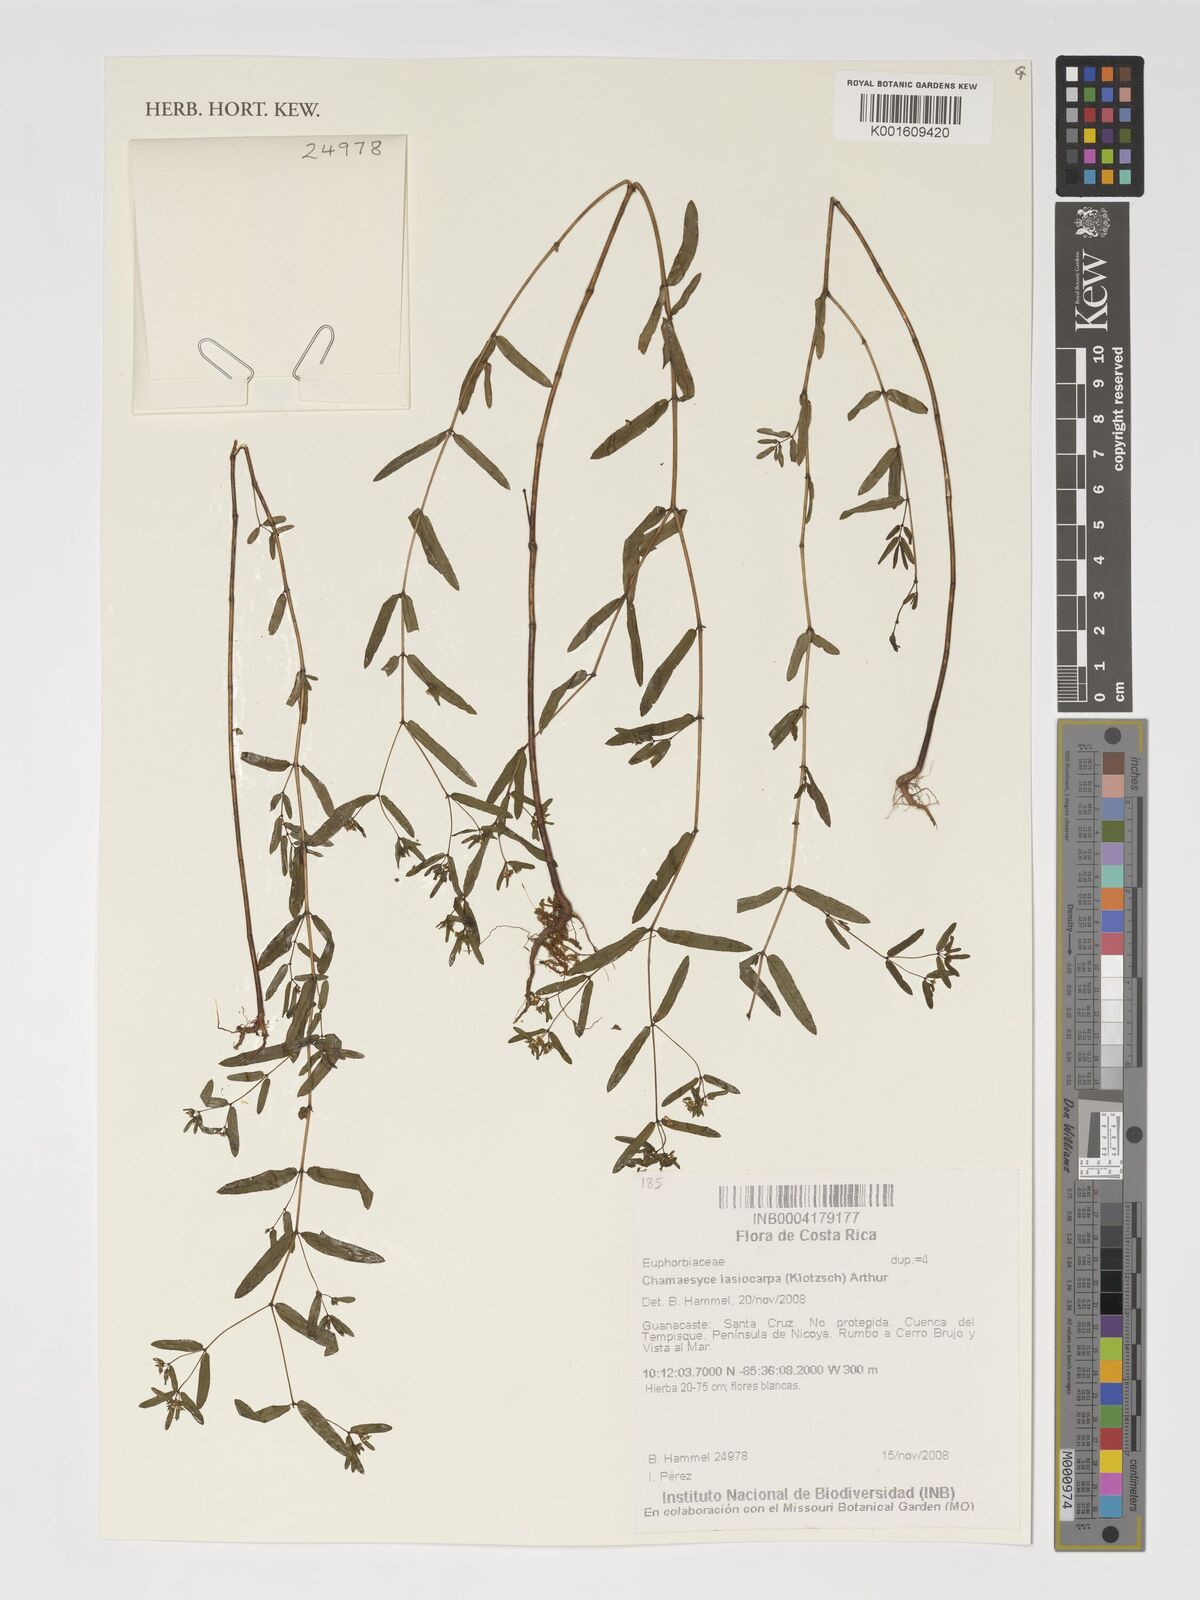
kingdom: Plantae
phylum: Tracheophyta
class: Magnoliopsida
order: Malpighiales
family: Euphorbiaceae
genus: Euphorbia
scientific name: Euphorbia lasiocarpa
